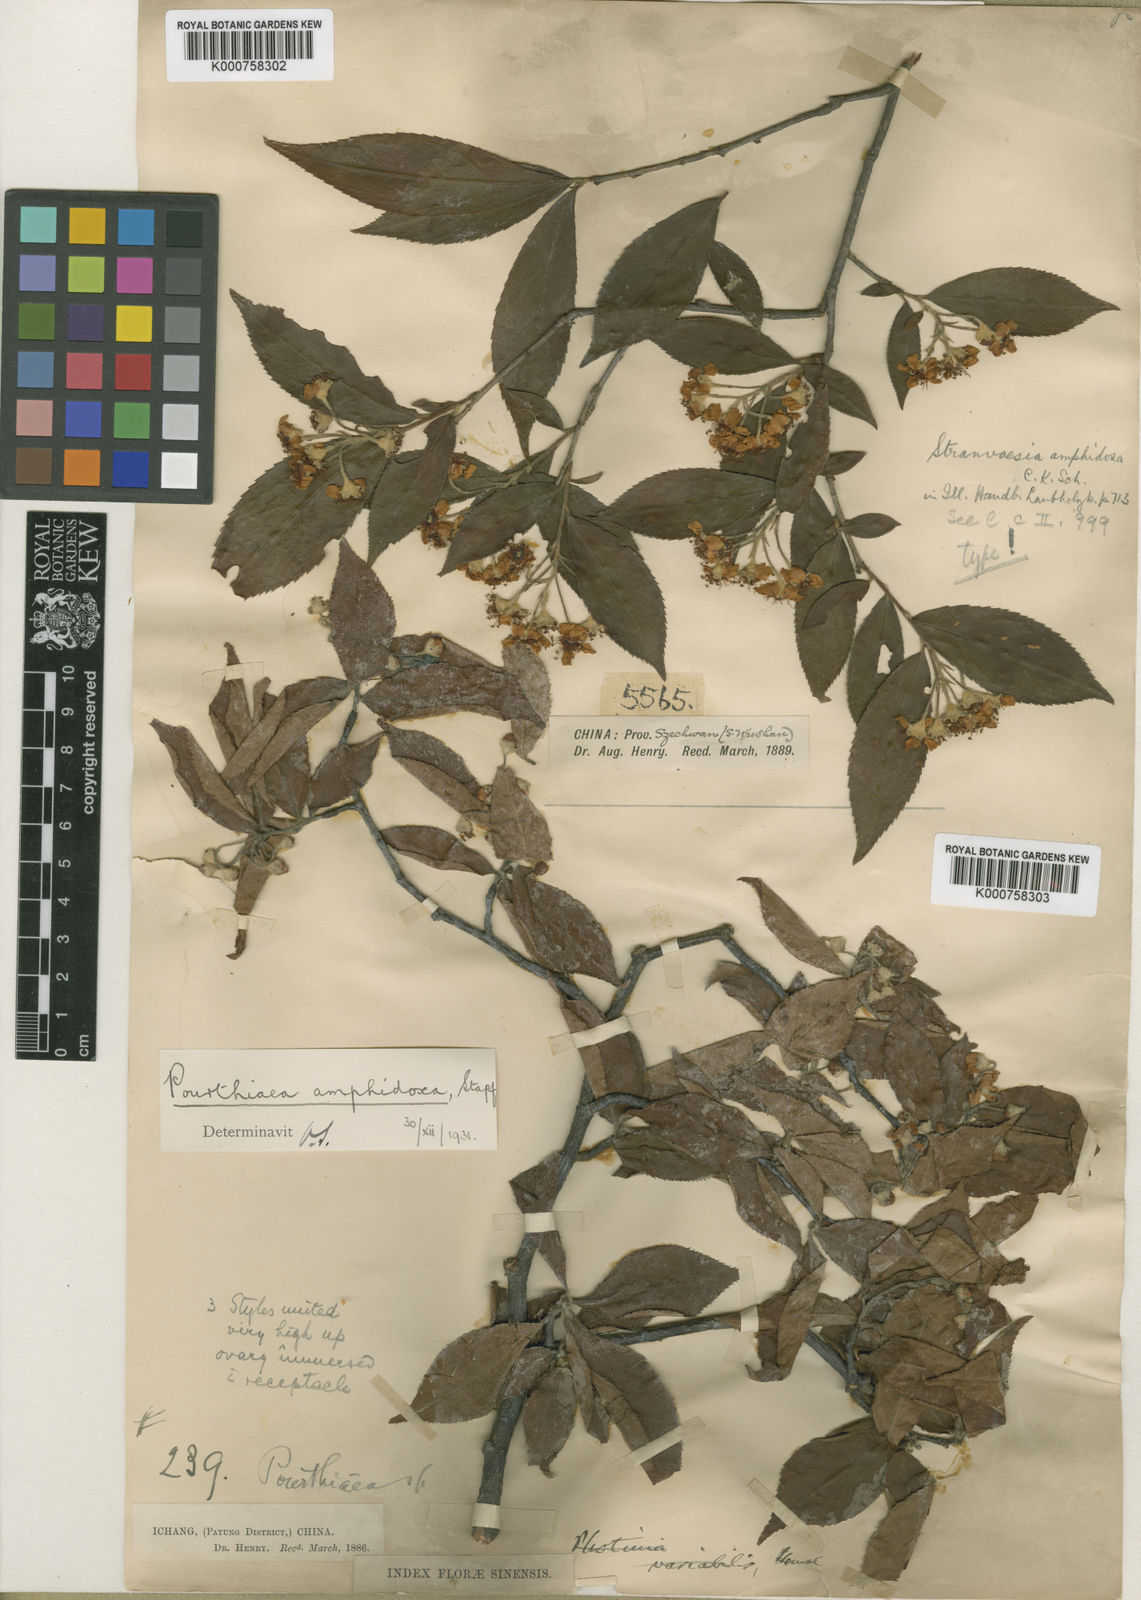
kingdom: Plantae
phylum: Tracheophyta
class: Magnoliopsida
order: Rosales
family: Rosaceae
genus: Pourthiaea
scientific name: Pourthiaea amphidoxa
